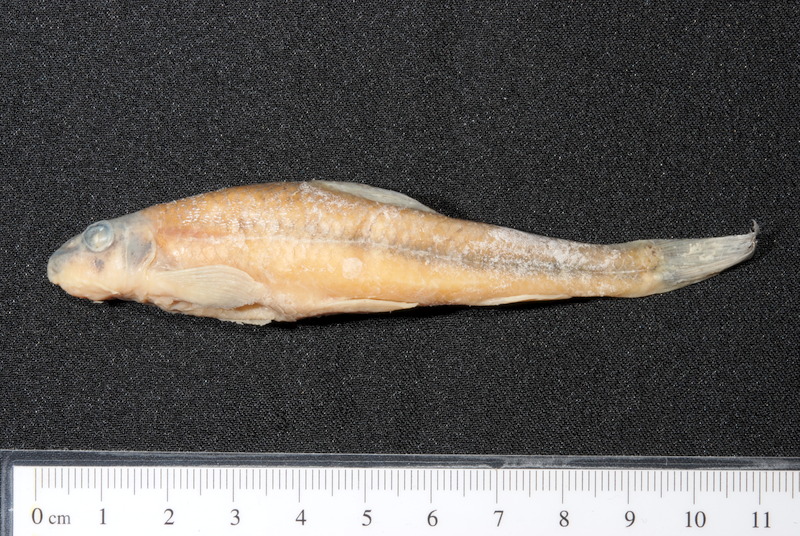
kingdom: Animalia
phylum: Chordata
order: Cypriniformes
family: Cyprinidae
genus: Romanogobio
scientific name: Romanogobio belingi
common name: Northern whitefin gudgeon
